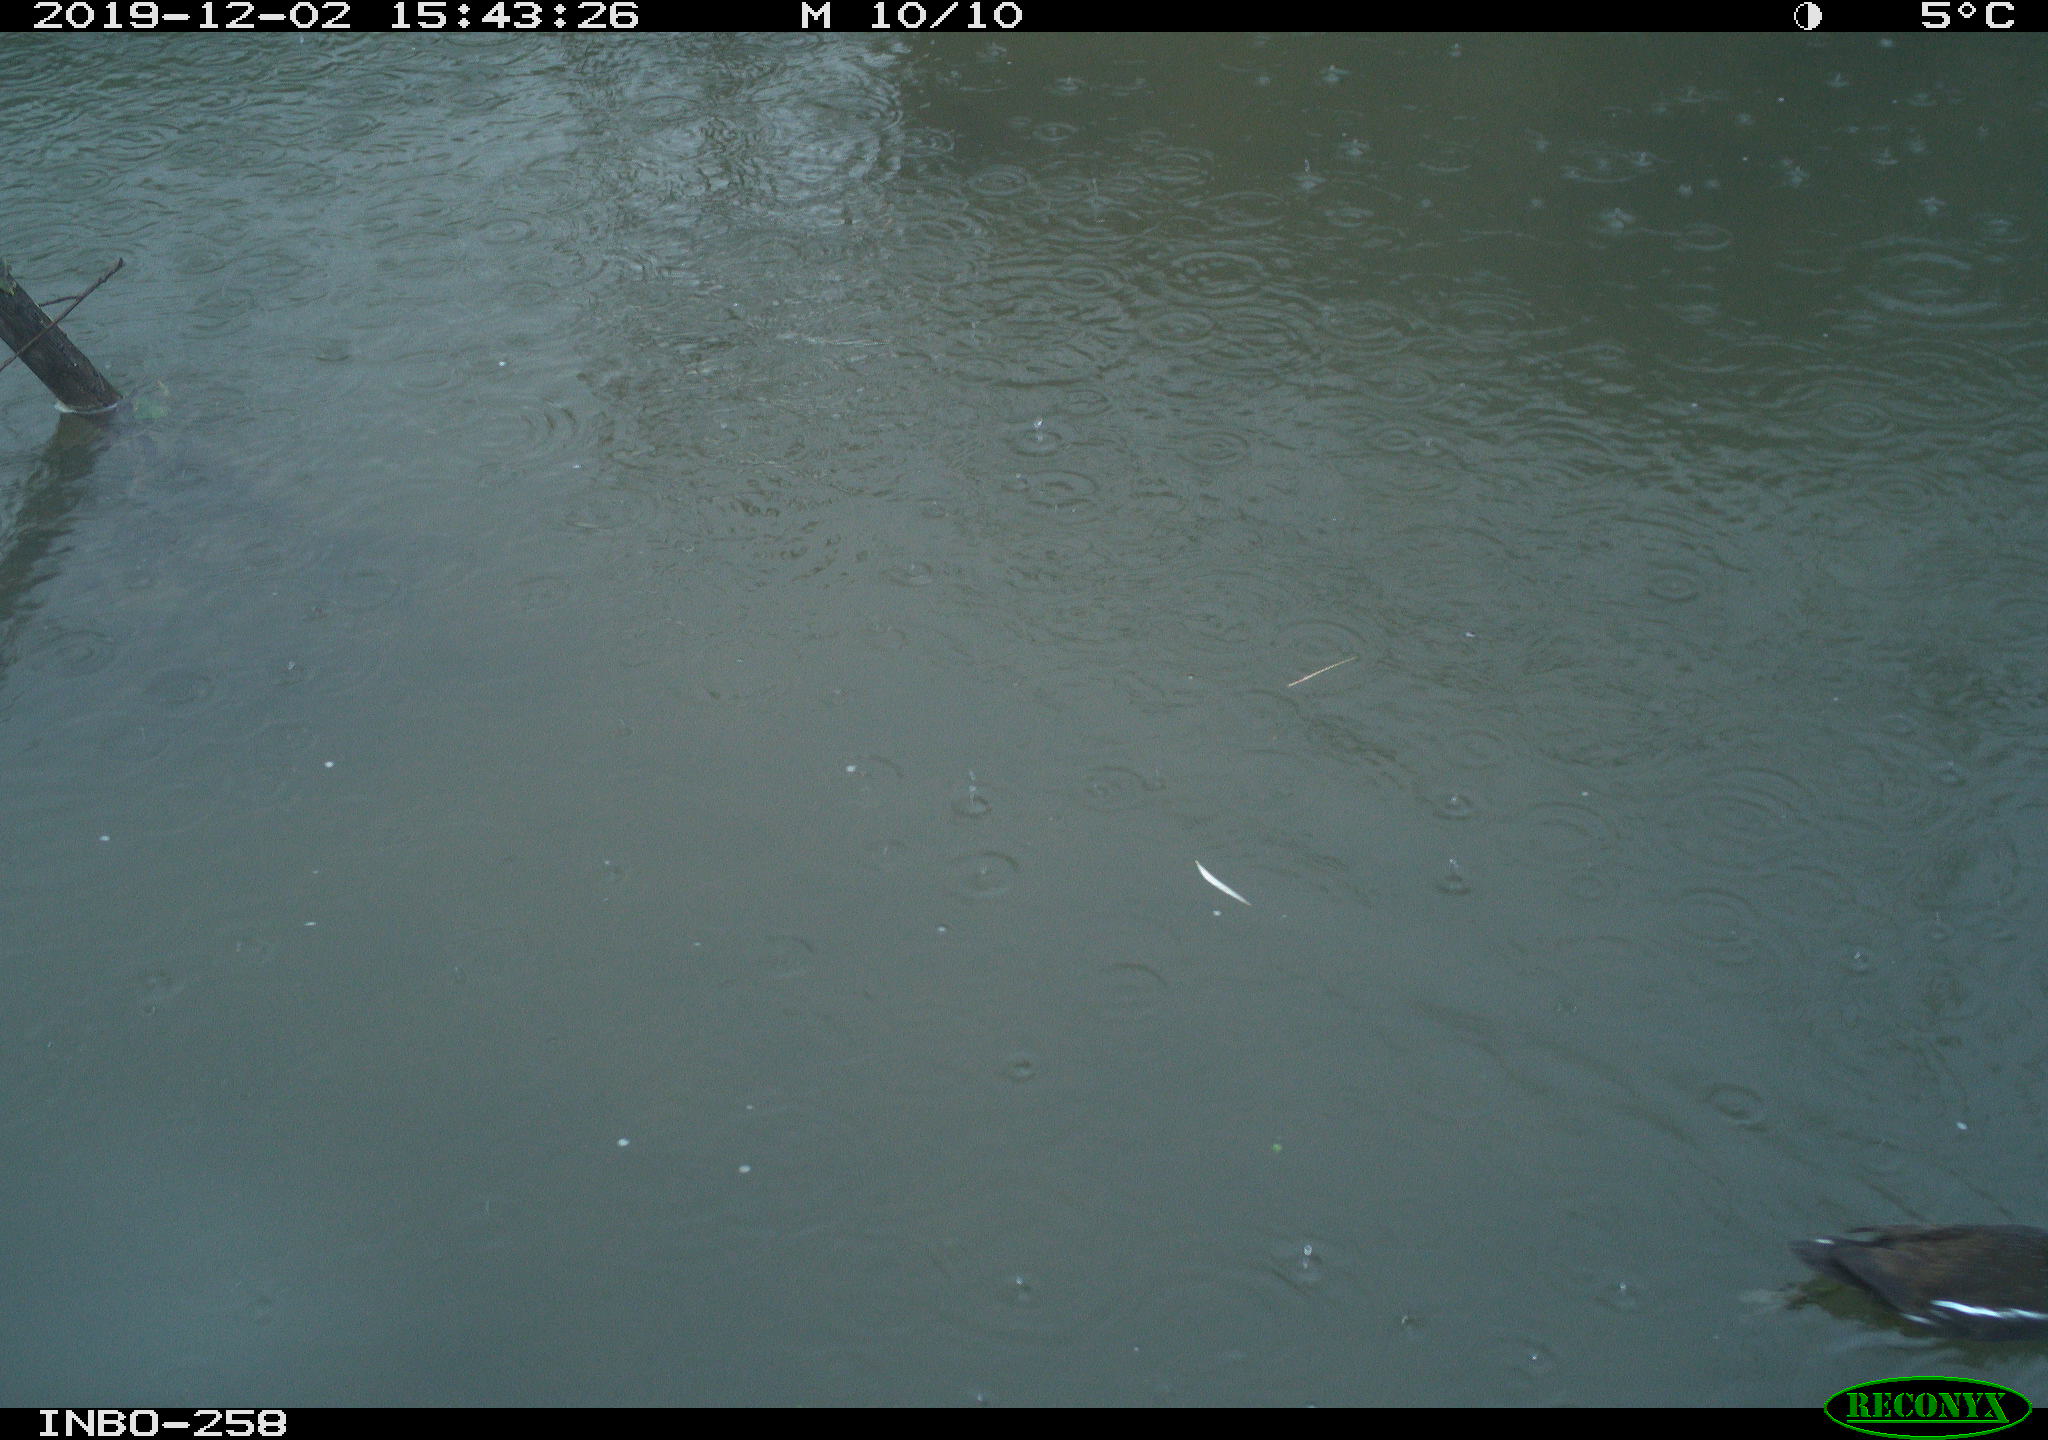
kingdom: Animalia
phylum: Chordata
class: Aves
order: Gruiformes
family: Rallidae
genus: Gallinula
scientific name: Gallinula chloropus
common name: Common moorhen
